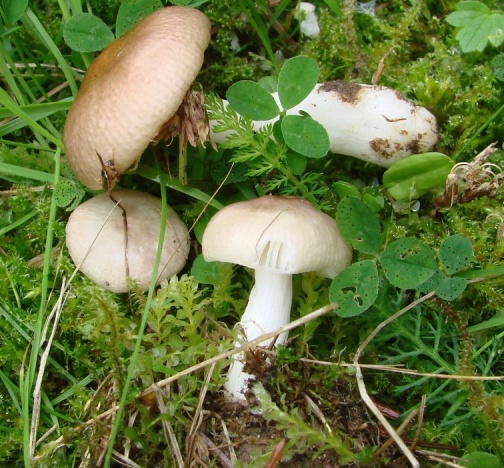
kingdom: Fungi
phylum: Basidiomycota
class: Agaricomycetes
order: Russulales
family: Russulaceae
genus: Russula
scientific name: Russula
